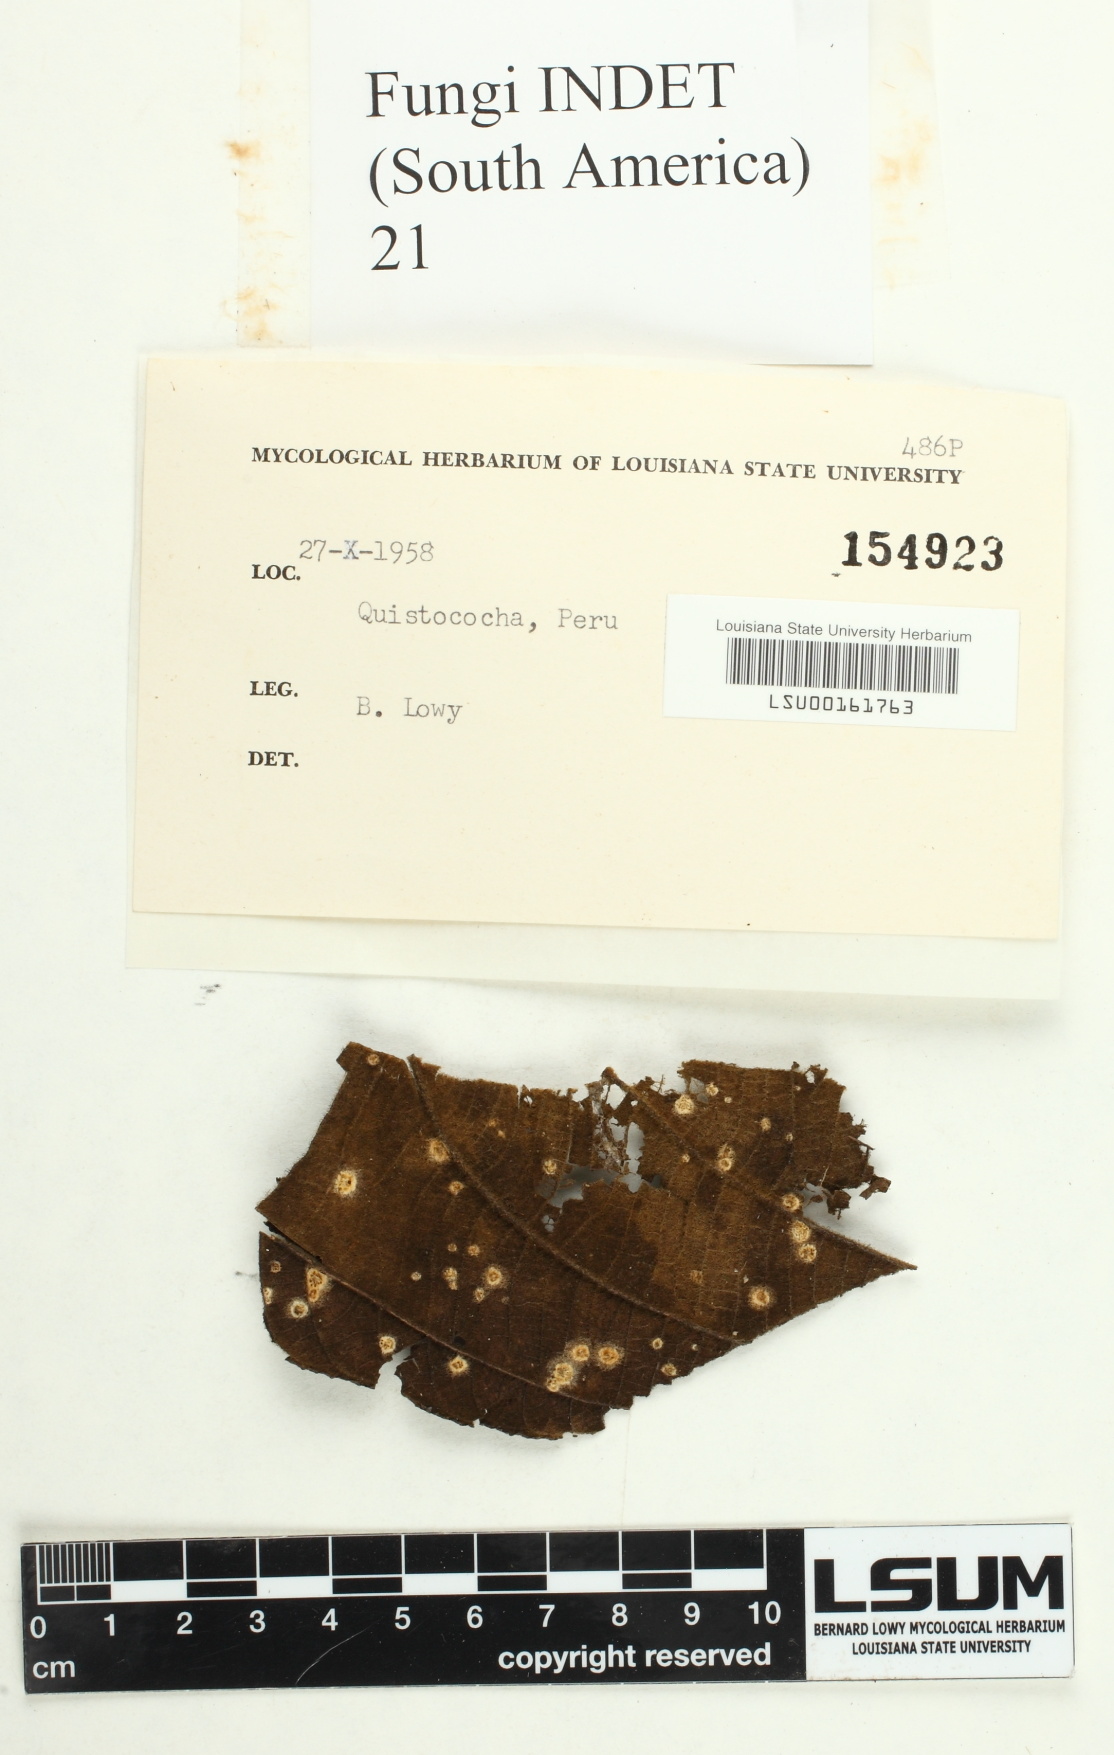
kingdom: Fungi
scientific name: Fungi
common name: Fungi
